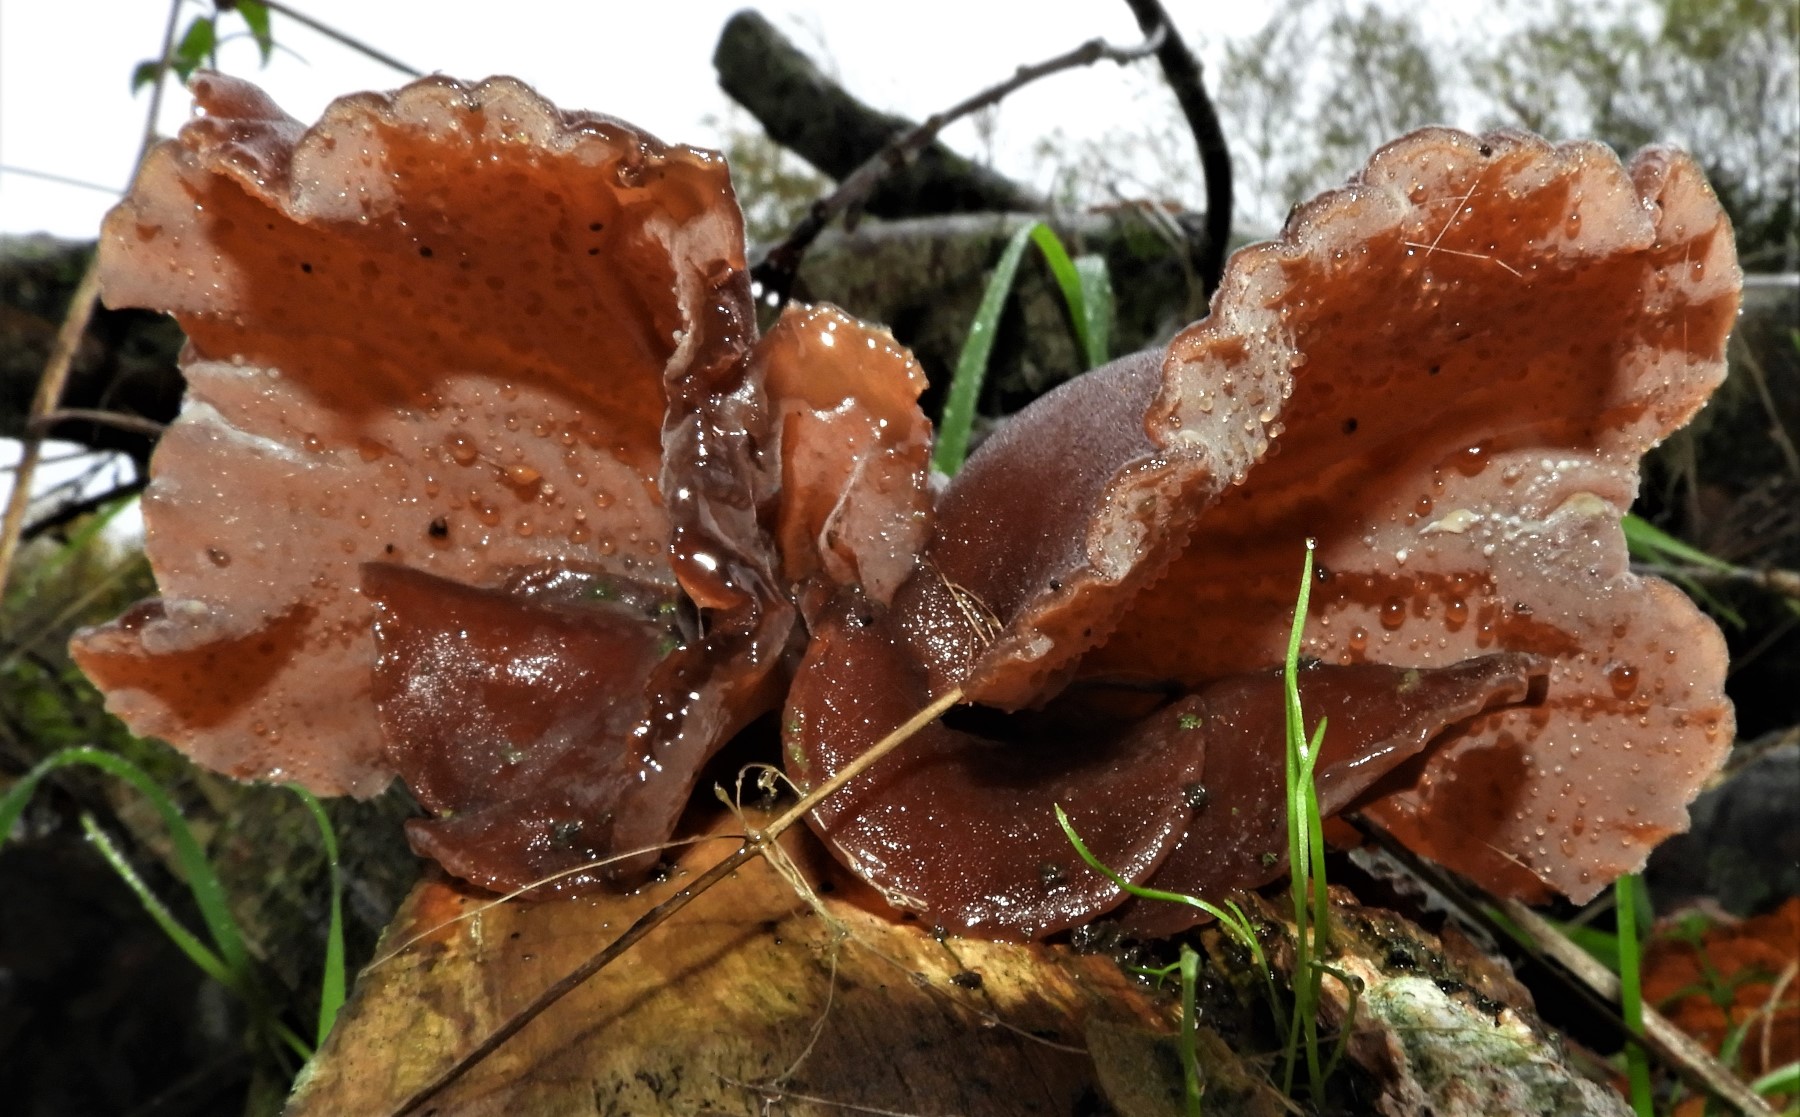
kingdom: Fungi
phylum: Basidiomycota
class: Agaricomycetes
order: Auriculariales
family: Auriculariaceae
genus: Auricularia
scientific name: Auricularia auricula-judae
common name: almindelig judasøre
